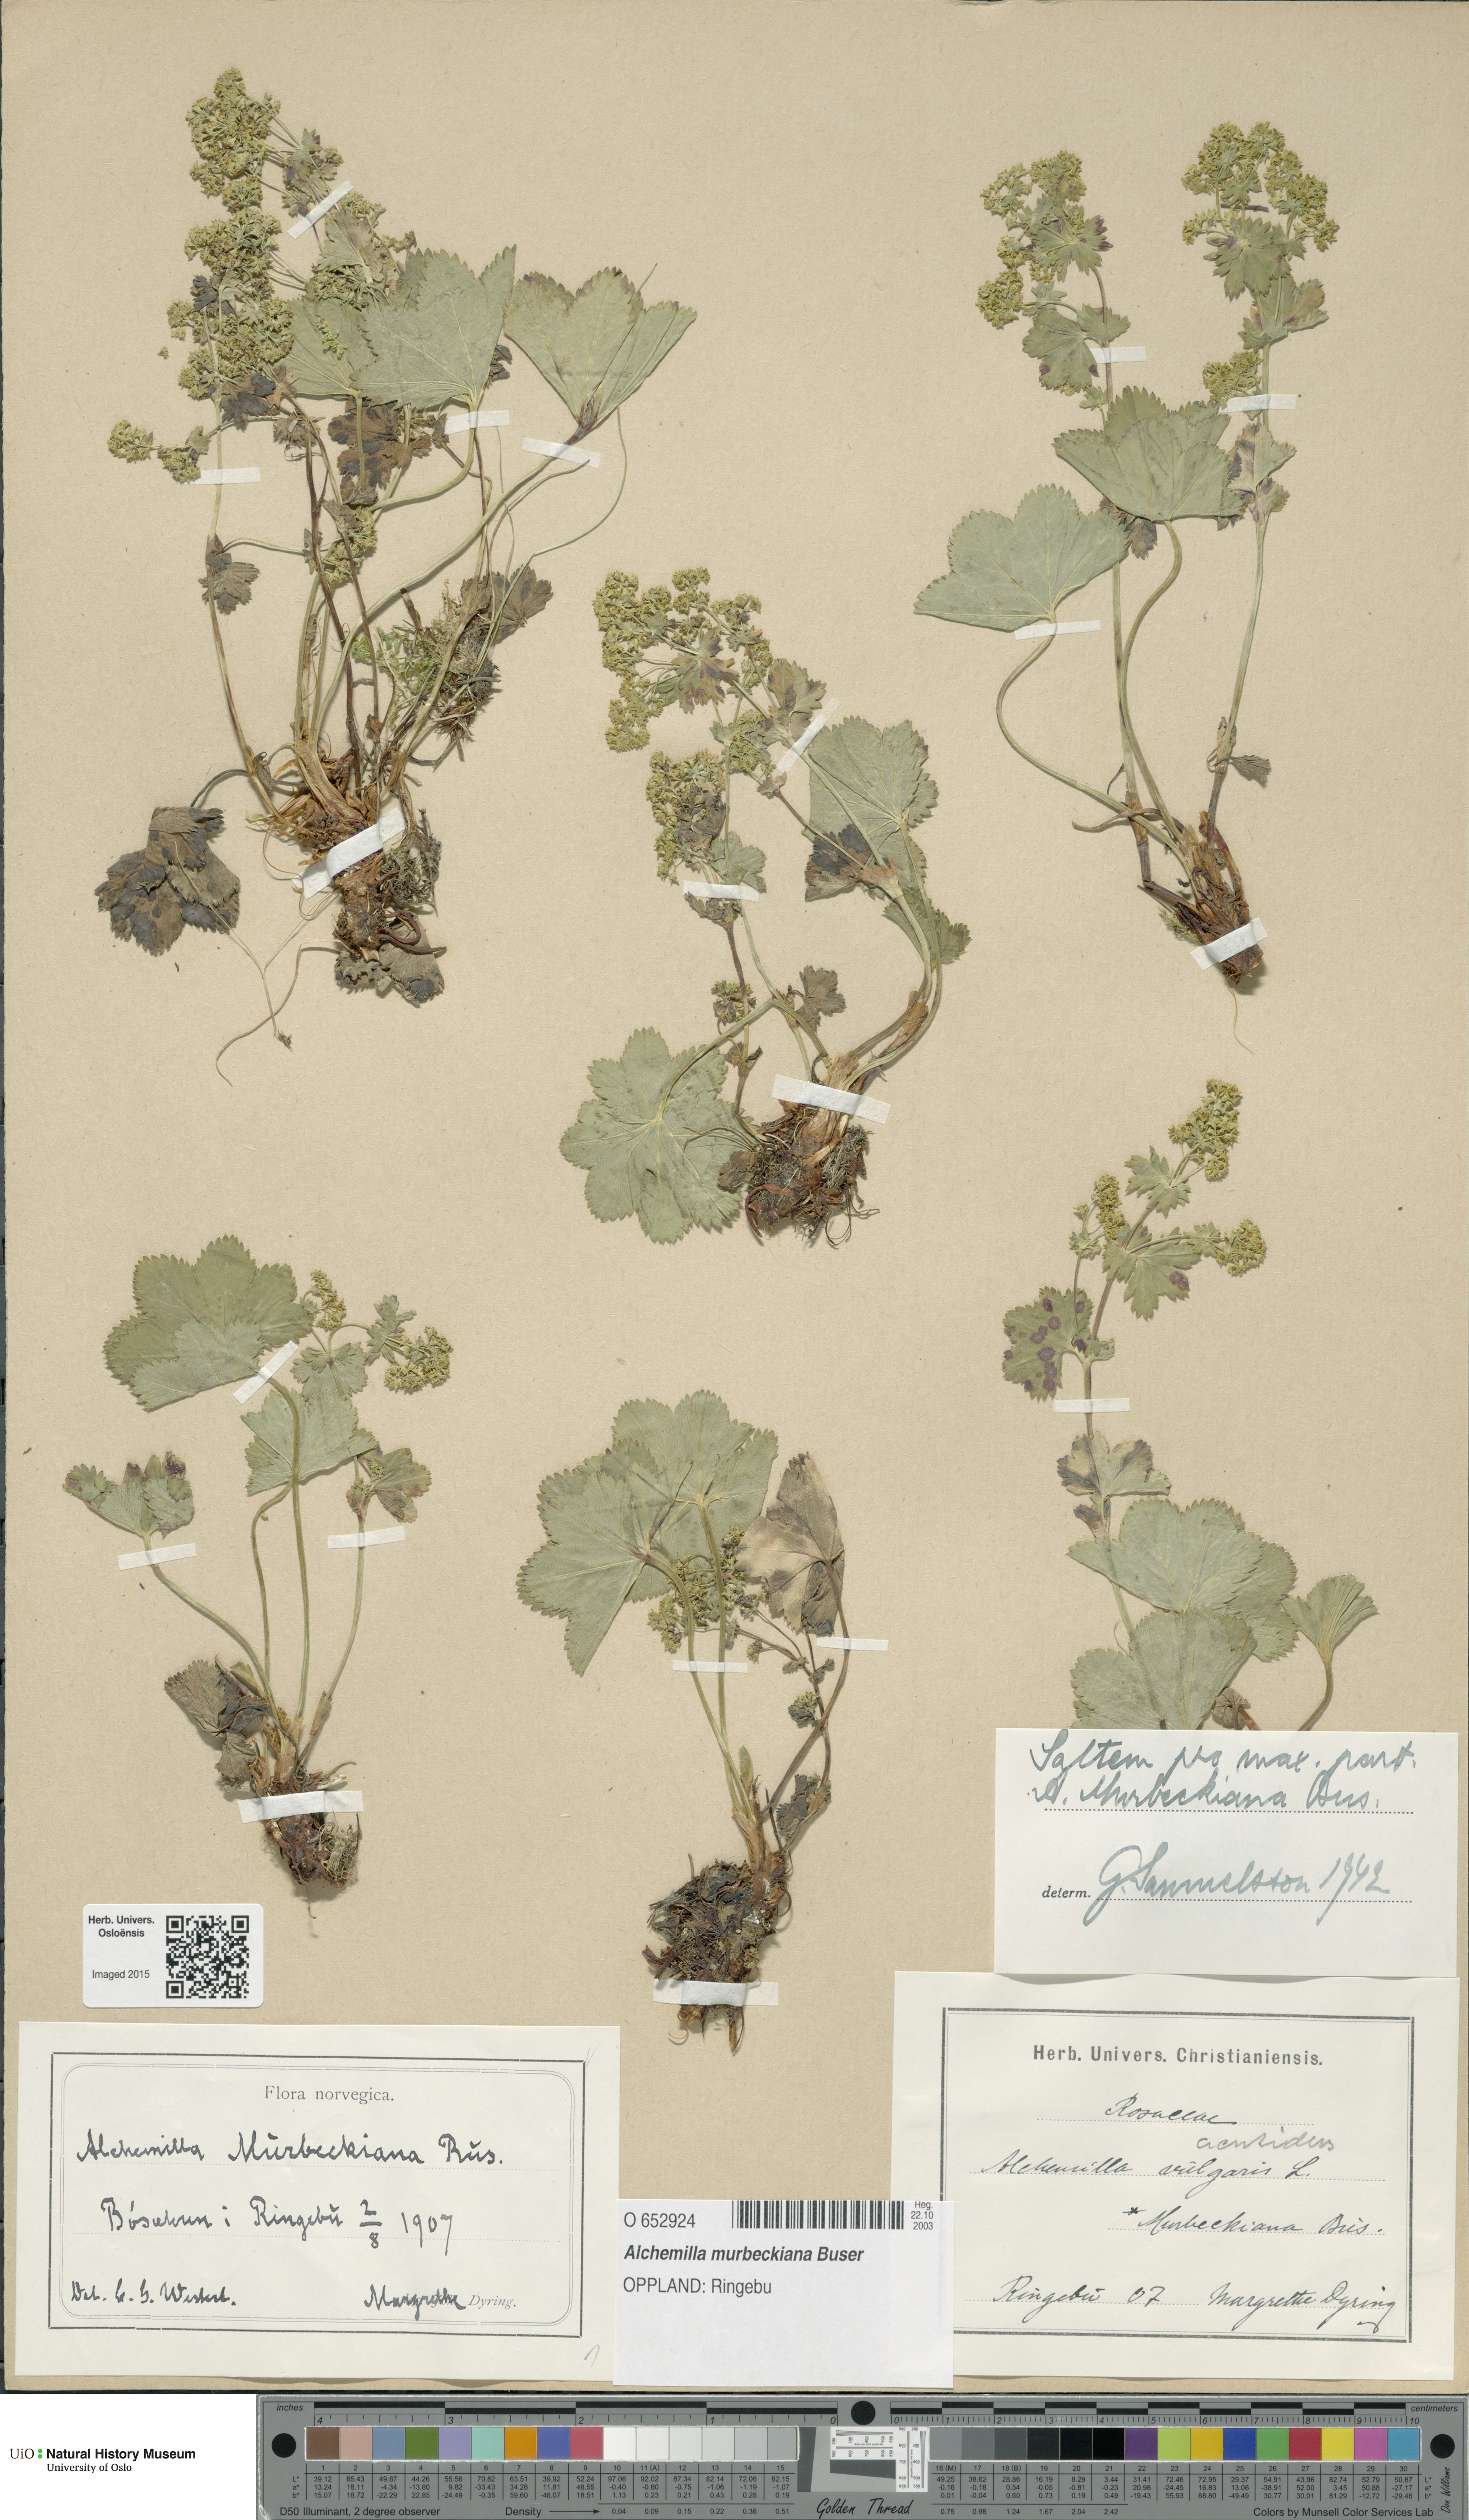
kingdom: Plantae
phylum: Tracheophyta
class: Magnoliopsida
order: Rosales
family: Rosaceae
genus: Alchemilla
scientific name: Alchemilla murbeckiana
